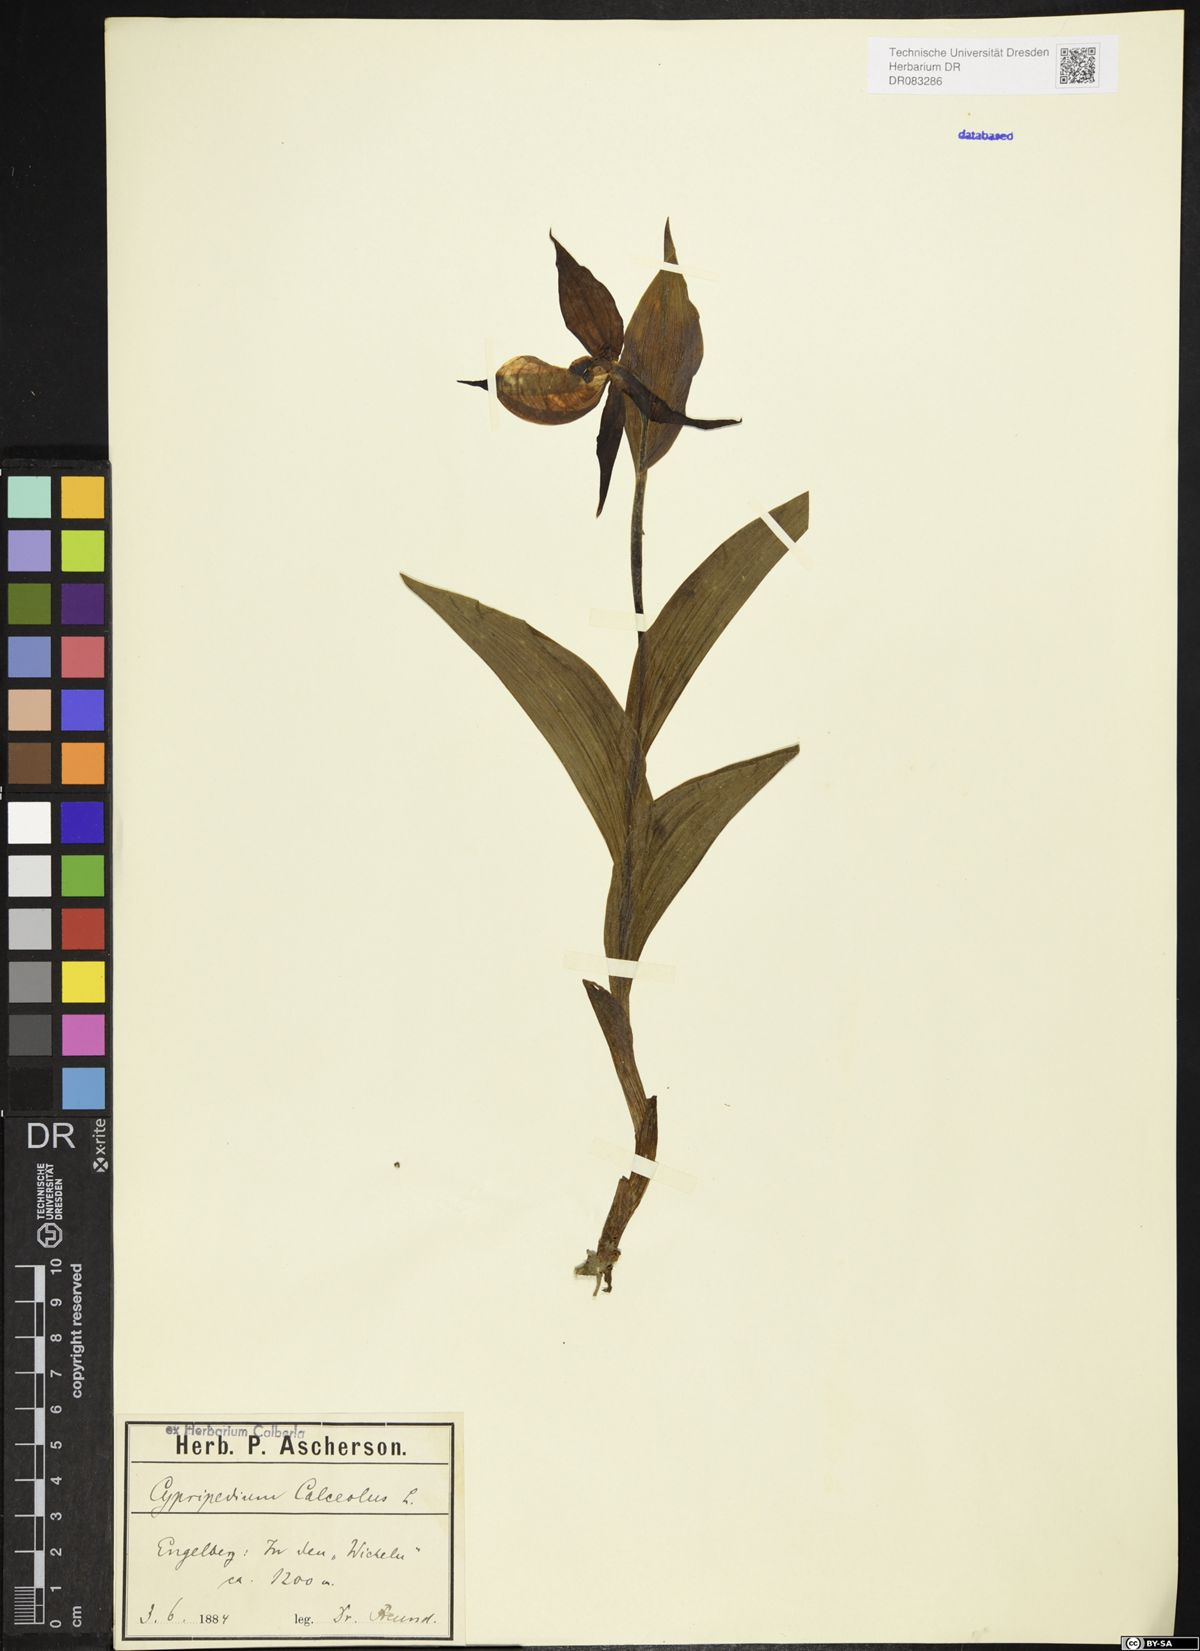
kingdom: Plantae
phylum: Tracheophyta
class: Liliopsida
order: Asparagales
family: Orchidaceae
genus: Cypripedium
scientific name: Cypripedium calceolus
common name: Lady's-slipper
